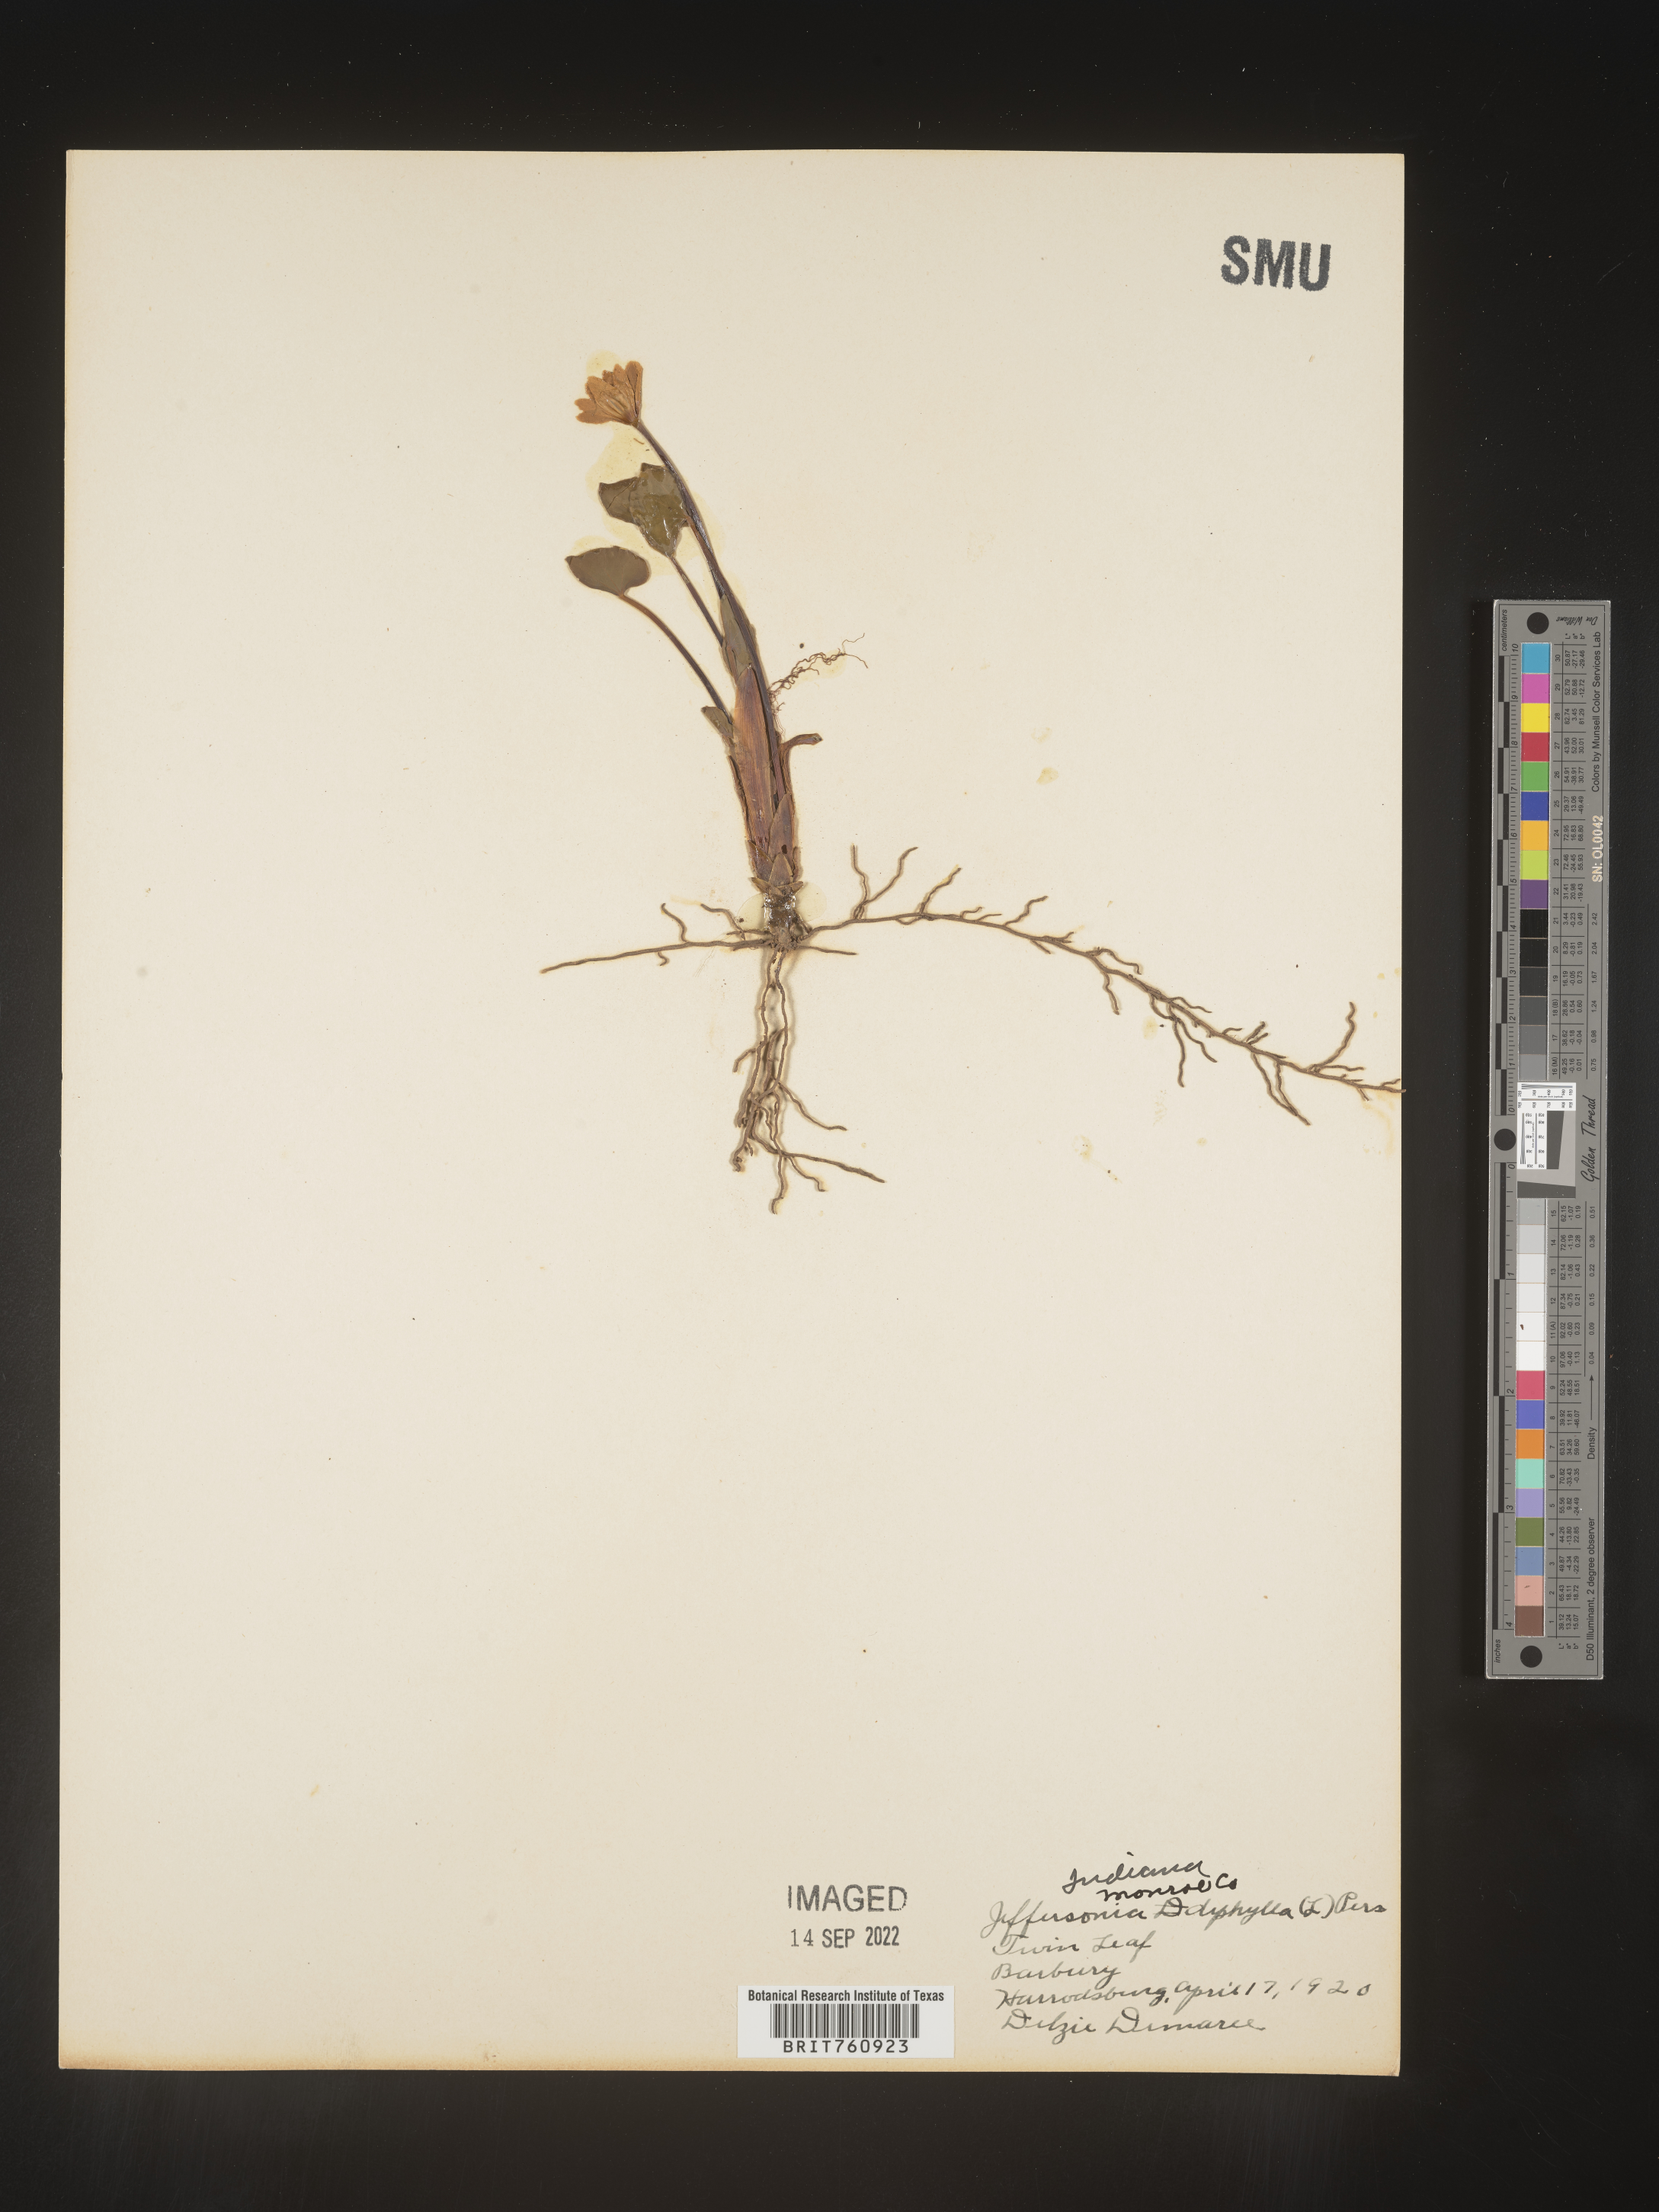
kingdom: Plantae
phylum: Tracheophyta
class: Magnoliopsida
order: Ranunculales
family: Berberidaceae
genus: Jeffersonia
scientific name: Jeffersonia
